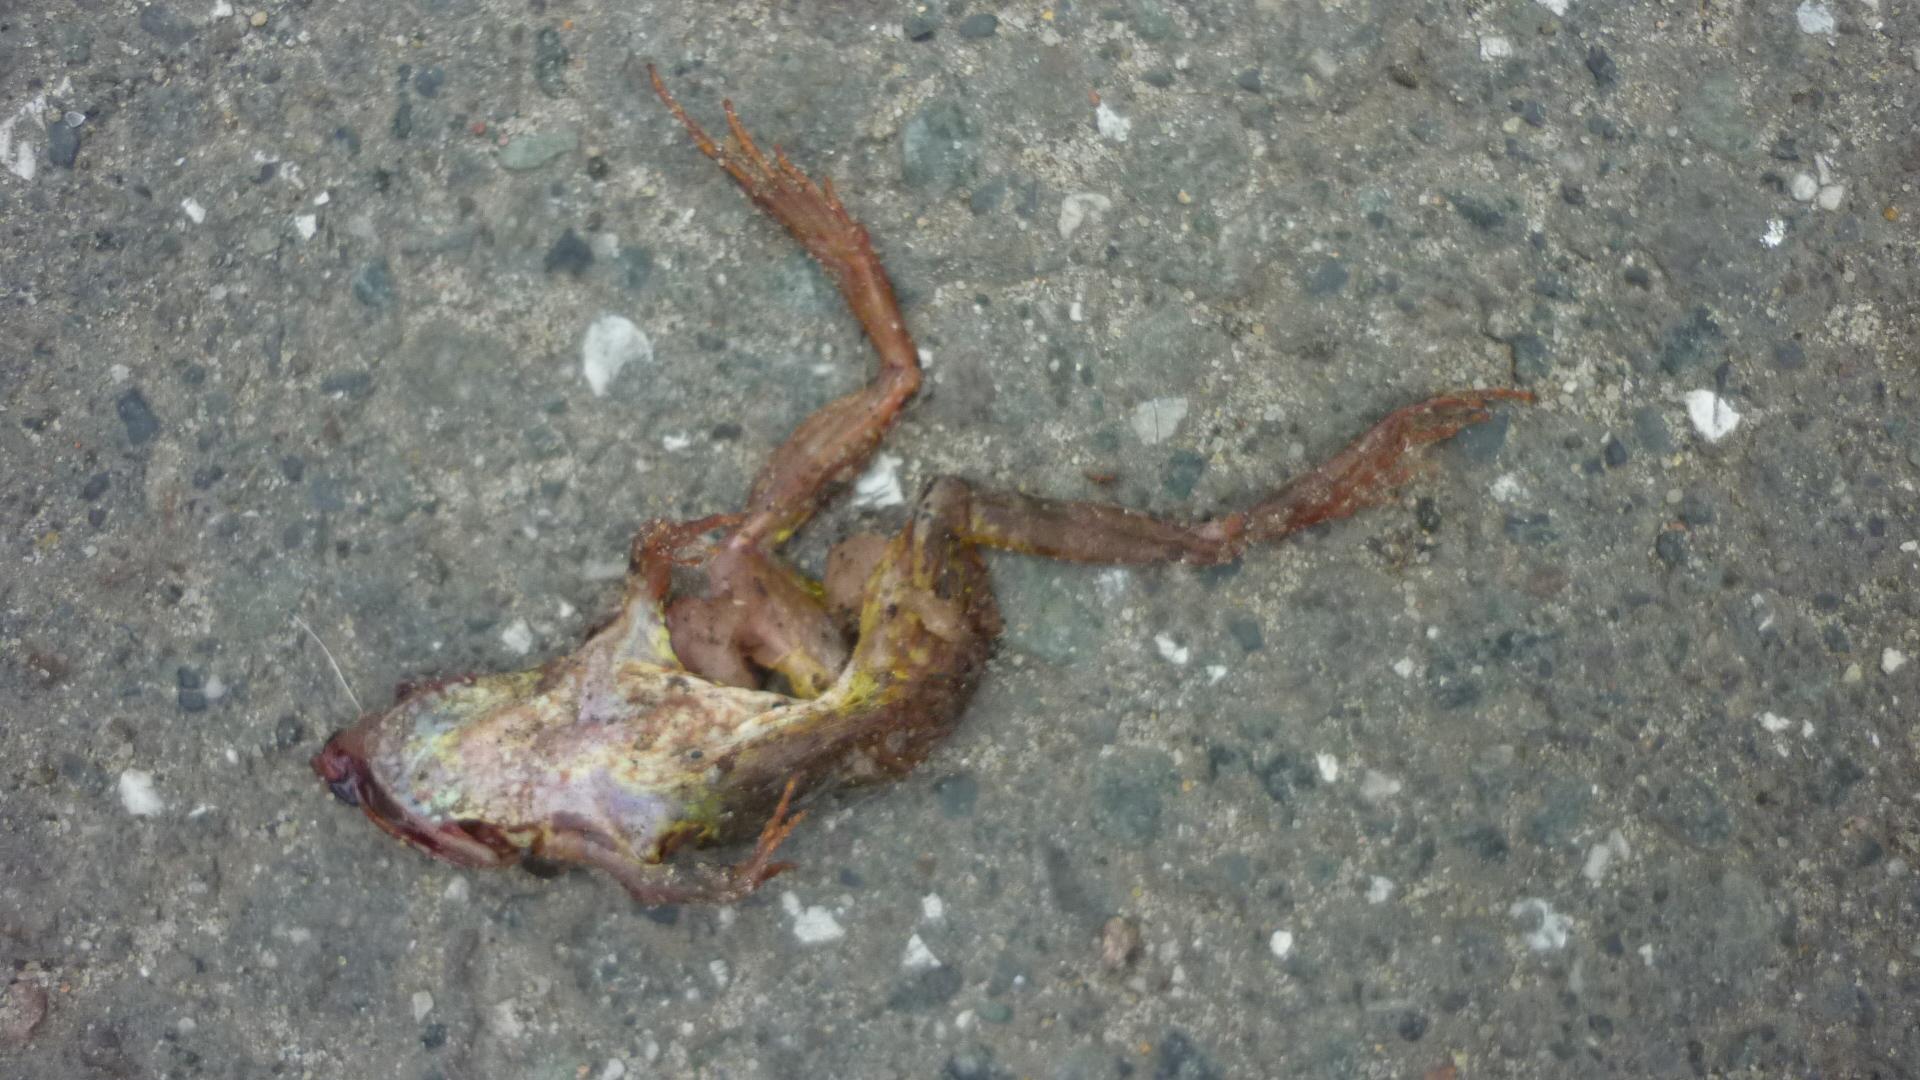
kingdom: Animalia
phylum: Chordata
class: Amphibia
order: Anura
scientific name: Anura
